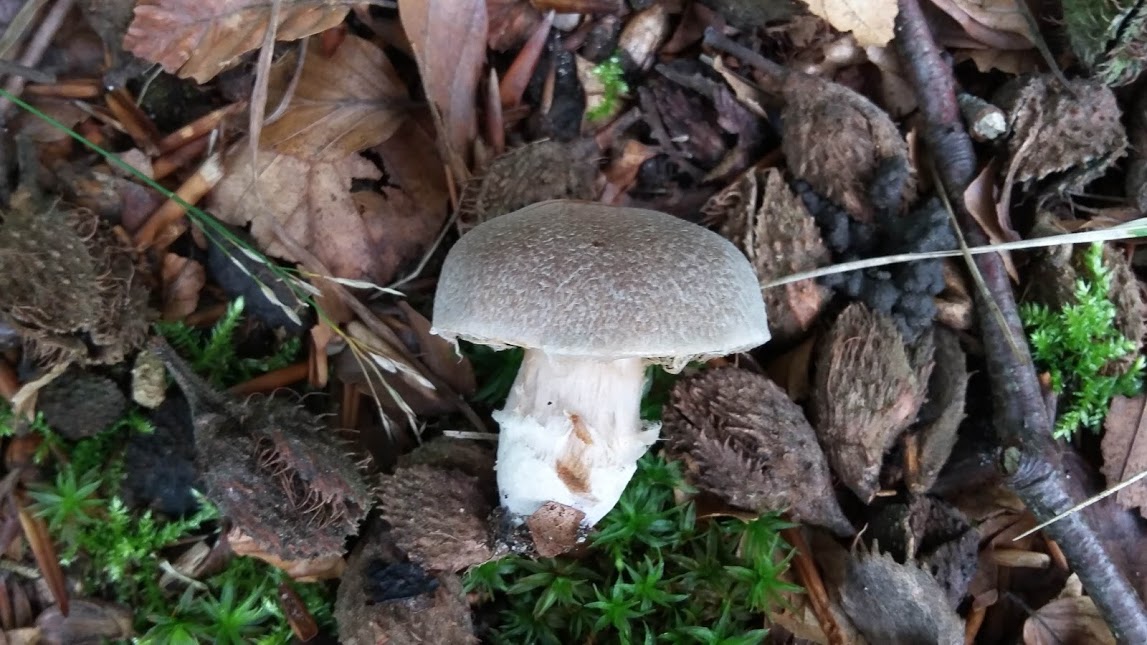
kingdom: Fungi
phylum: Basidiomycota
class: Agaricomycetes
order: Agaricales
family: Cortinariaceae
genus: Cortinarius
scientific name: Cortinarius
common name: pelargonie-slørhat
